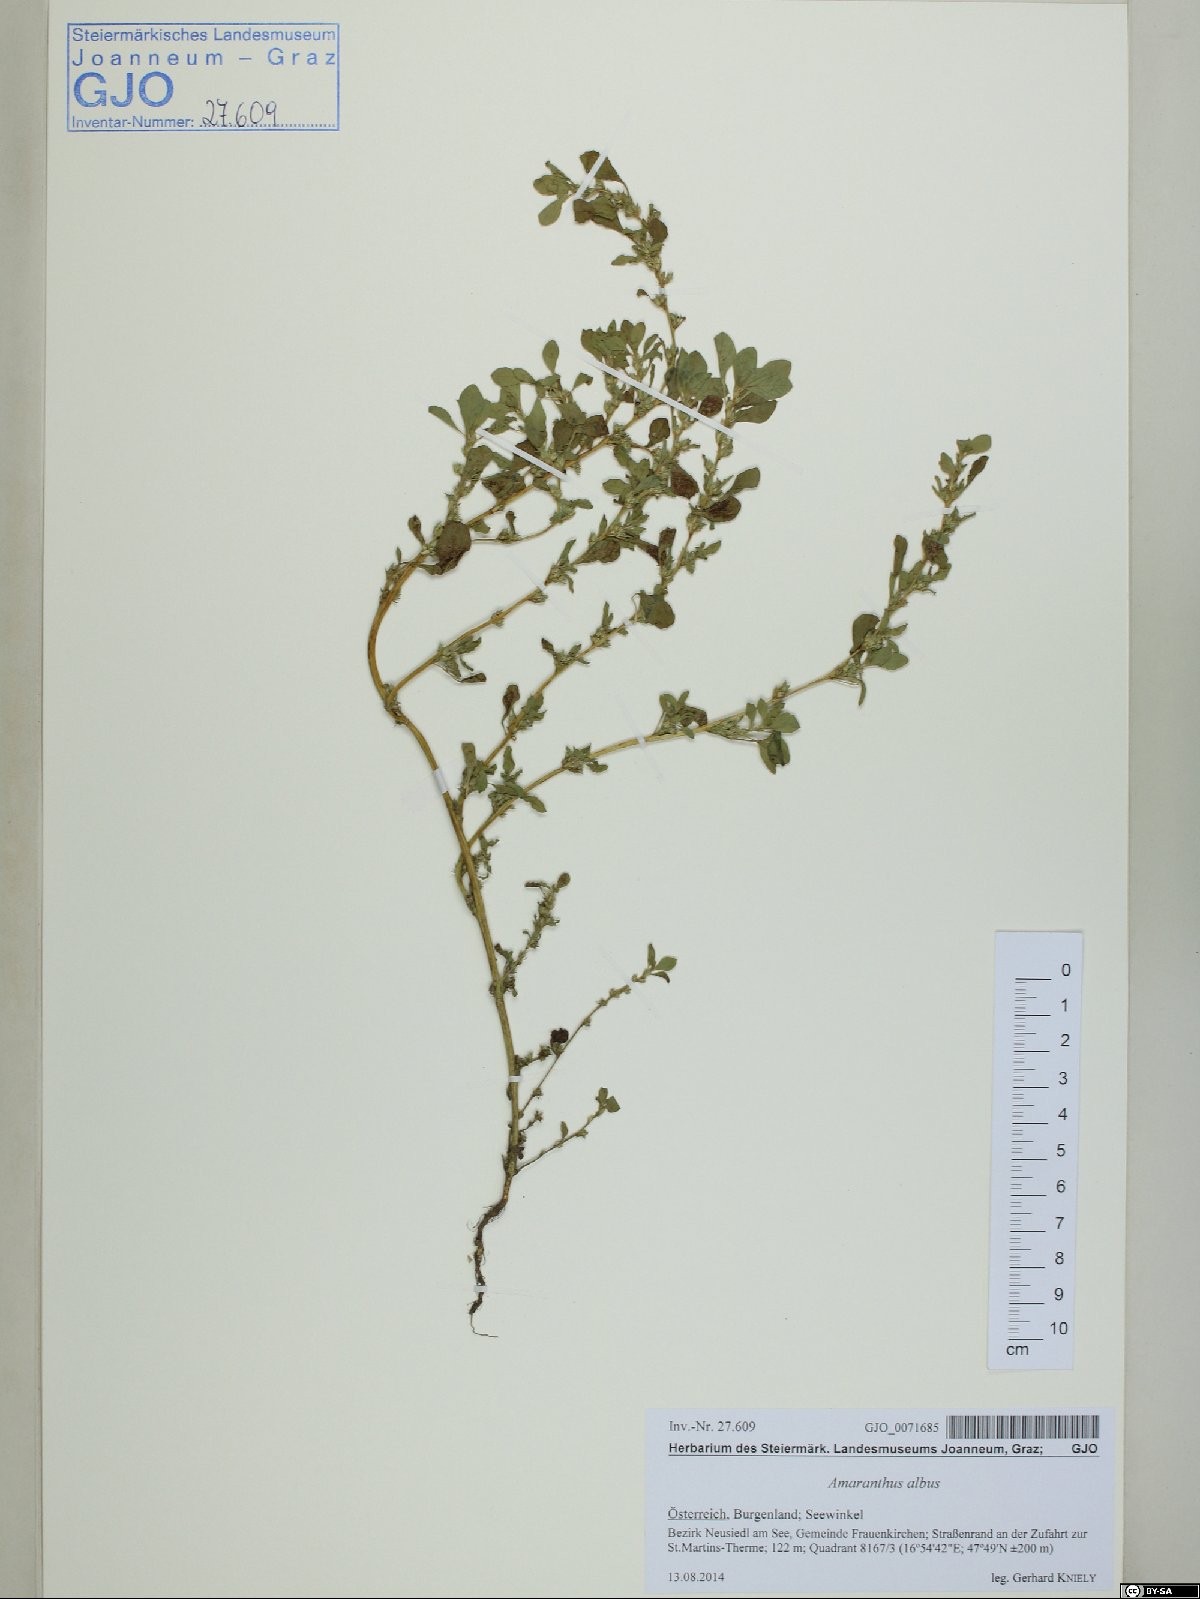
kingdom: Plantae
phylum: Tracheophyta
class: Magnoliopsida
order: Caryophyllales
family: Amaranthaceae
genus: Amaranthus
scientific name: Amaranthus albus
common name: White pigweed
